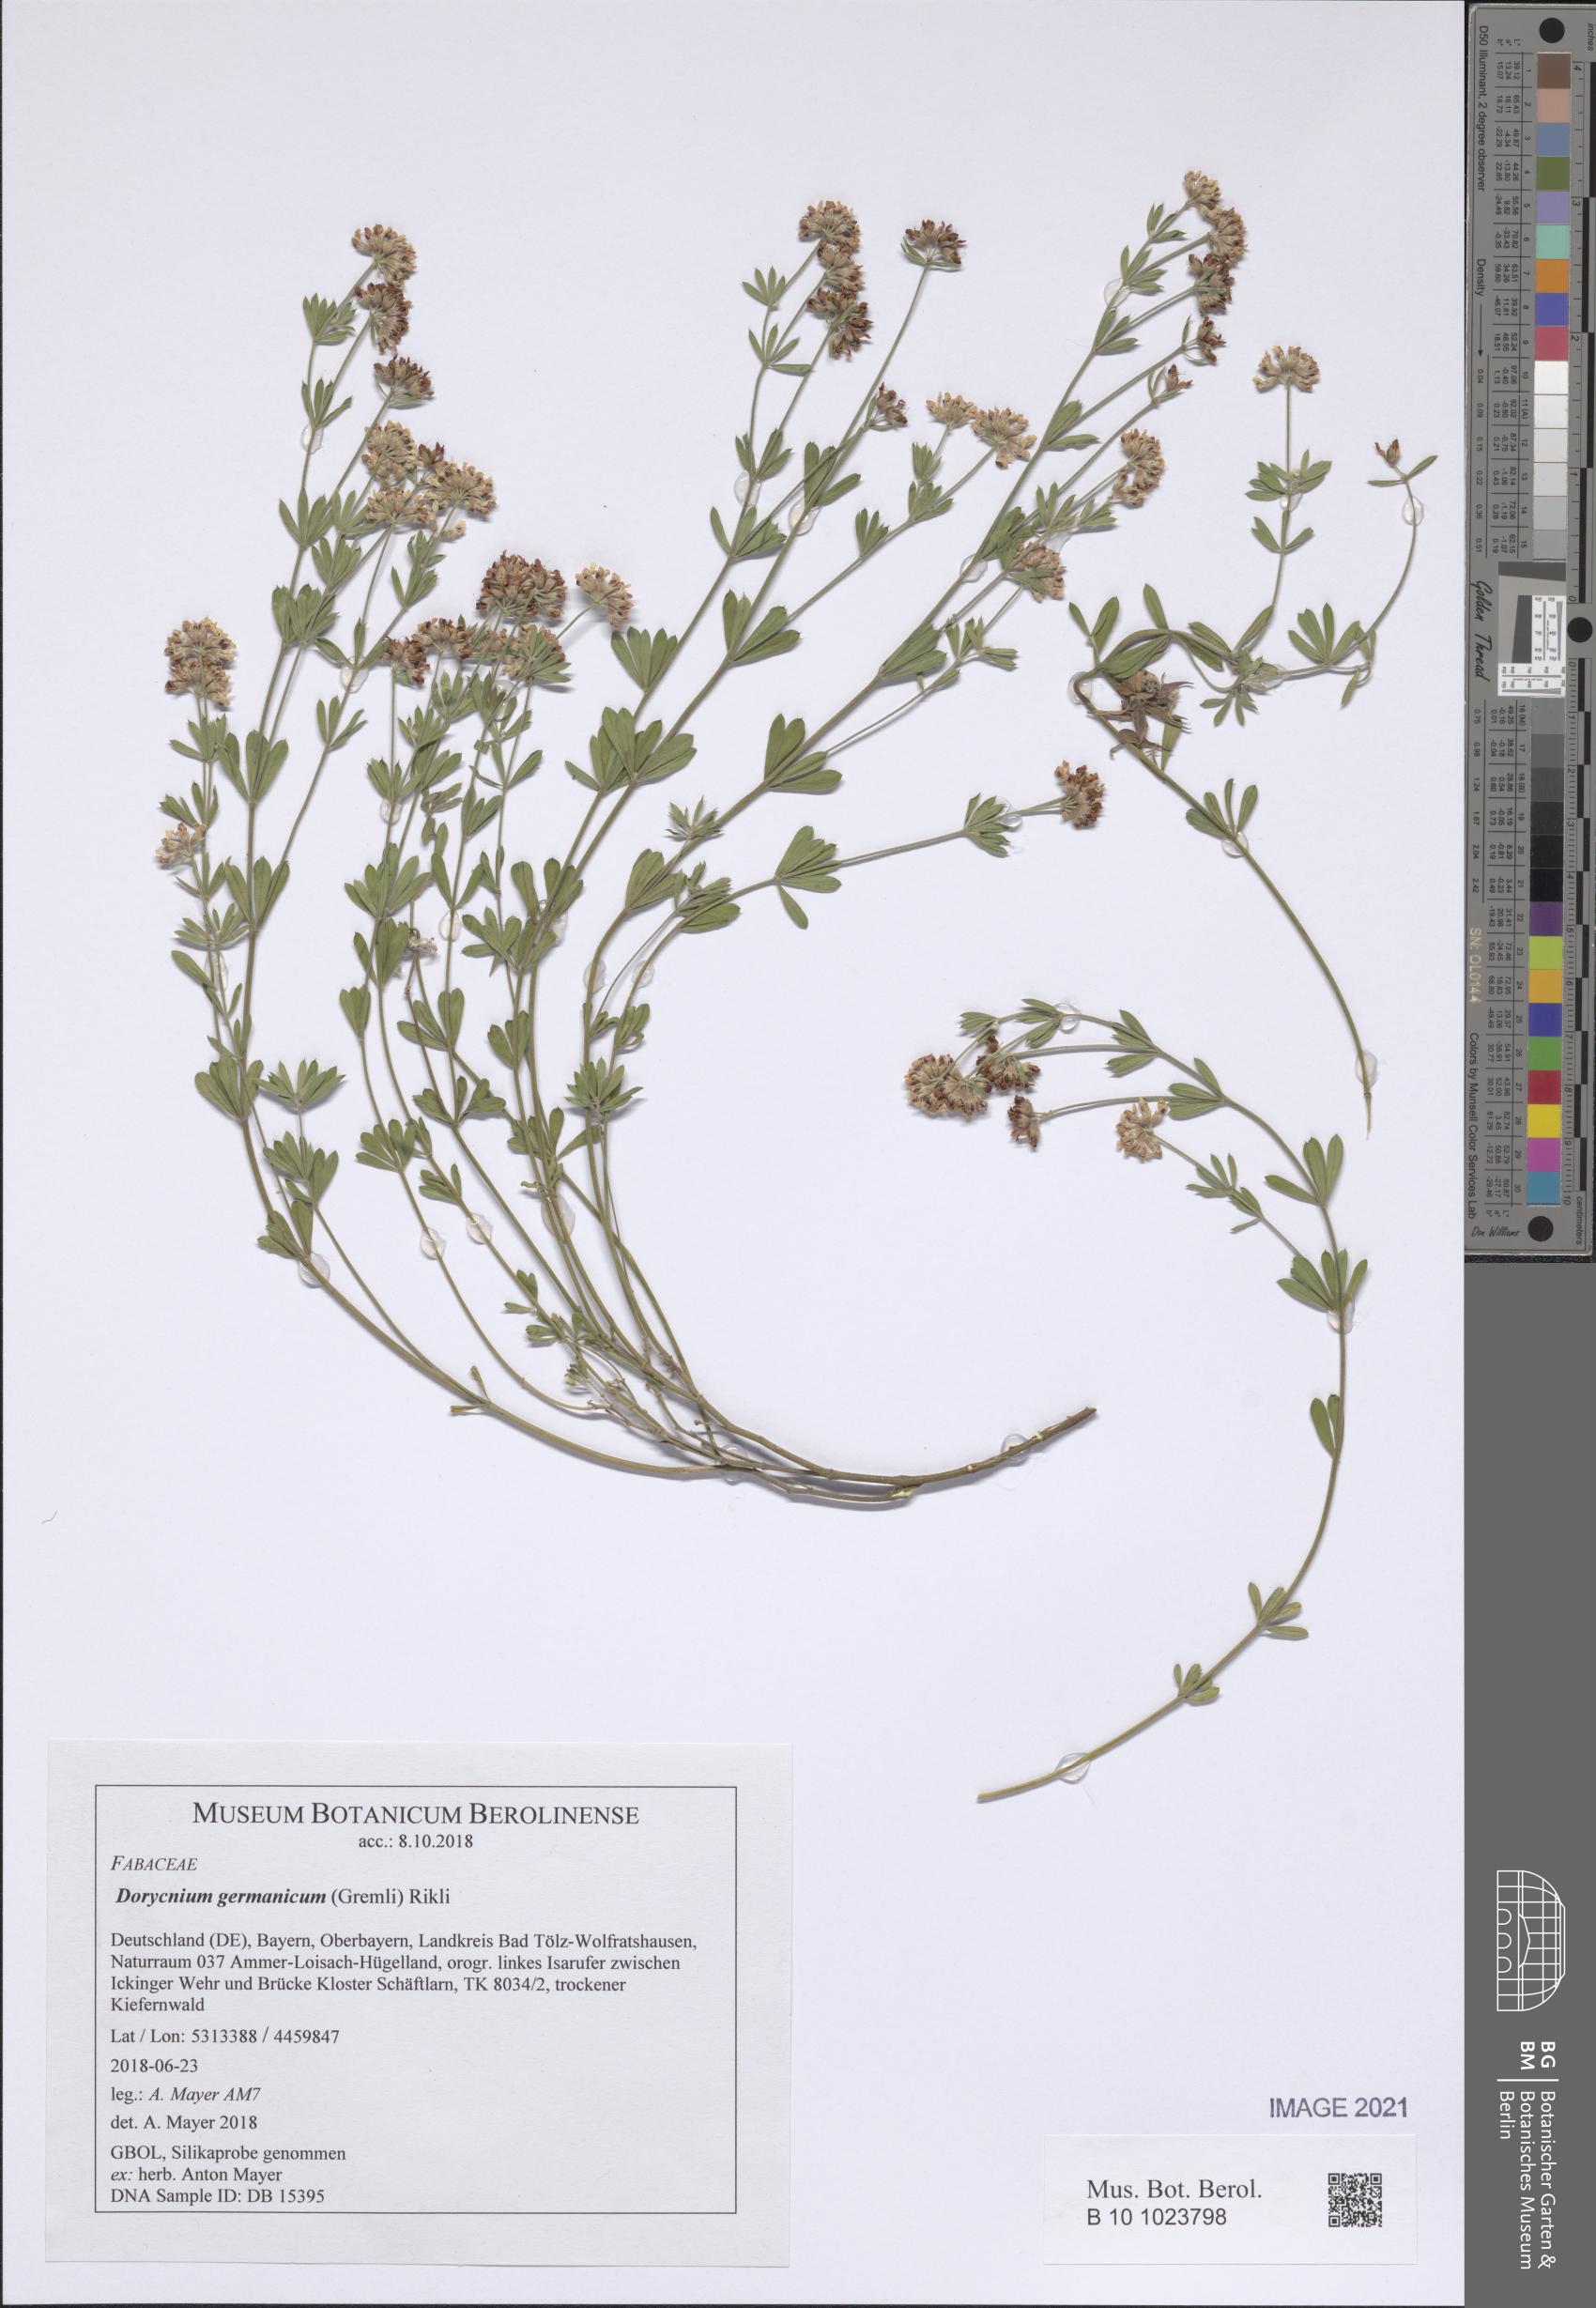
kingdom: Plantae
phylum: Tracheophyta
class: Magnoliopsida
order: Fabales
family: Fabaceae
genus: Lotus
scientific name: Lotus germanicus
